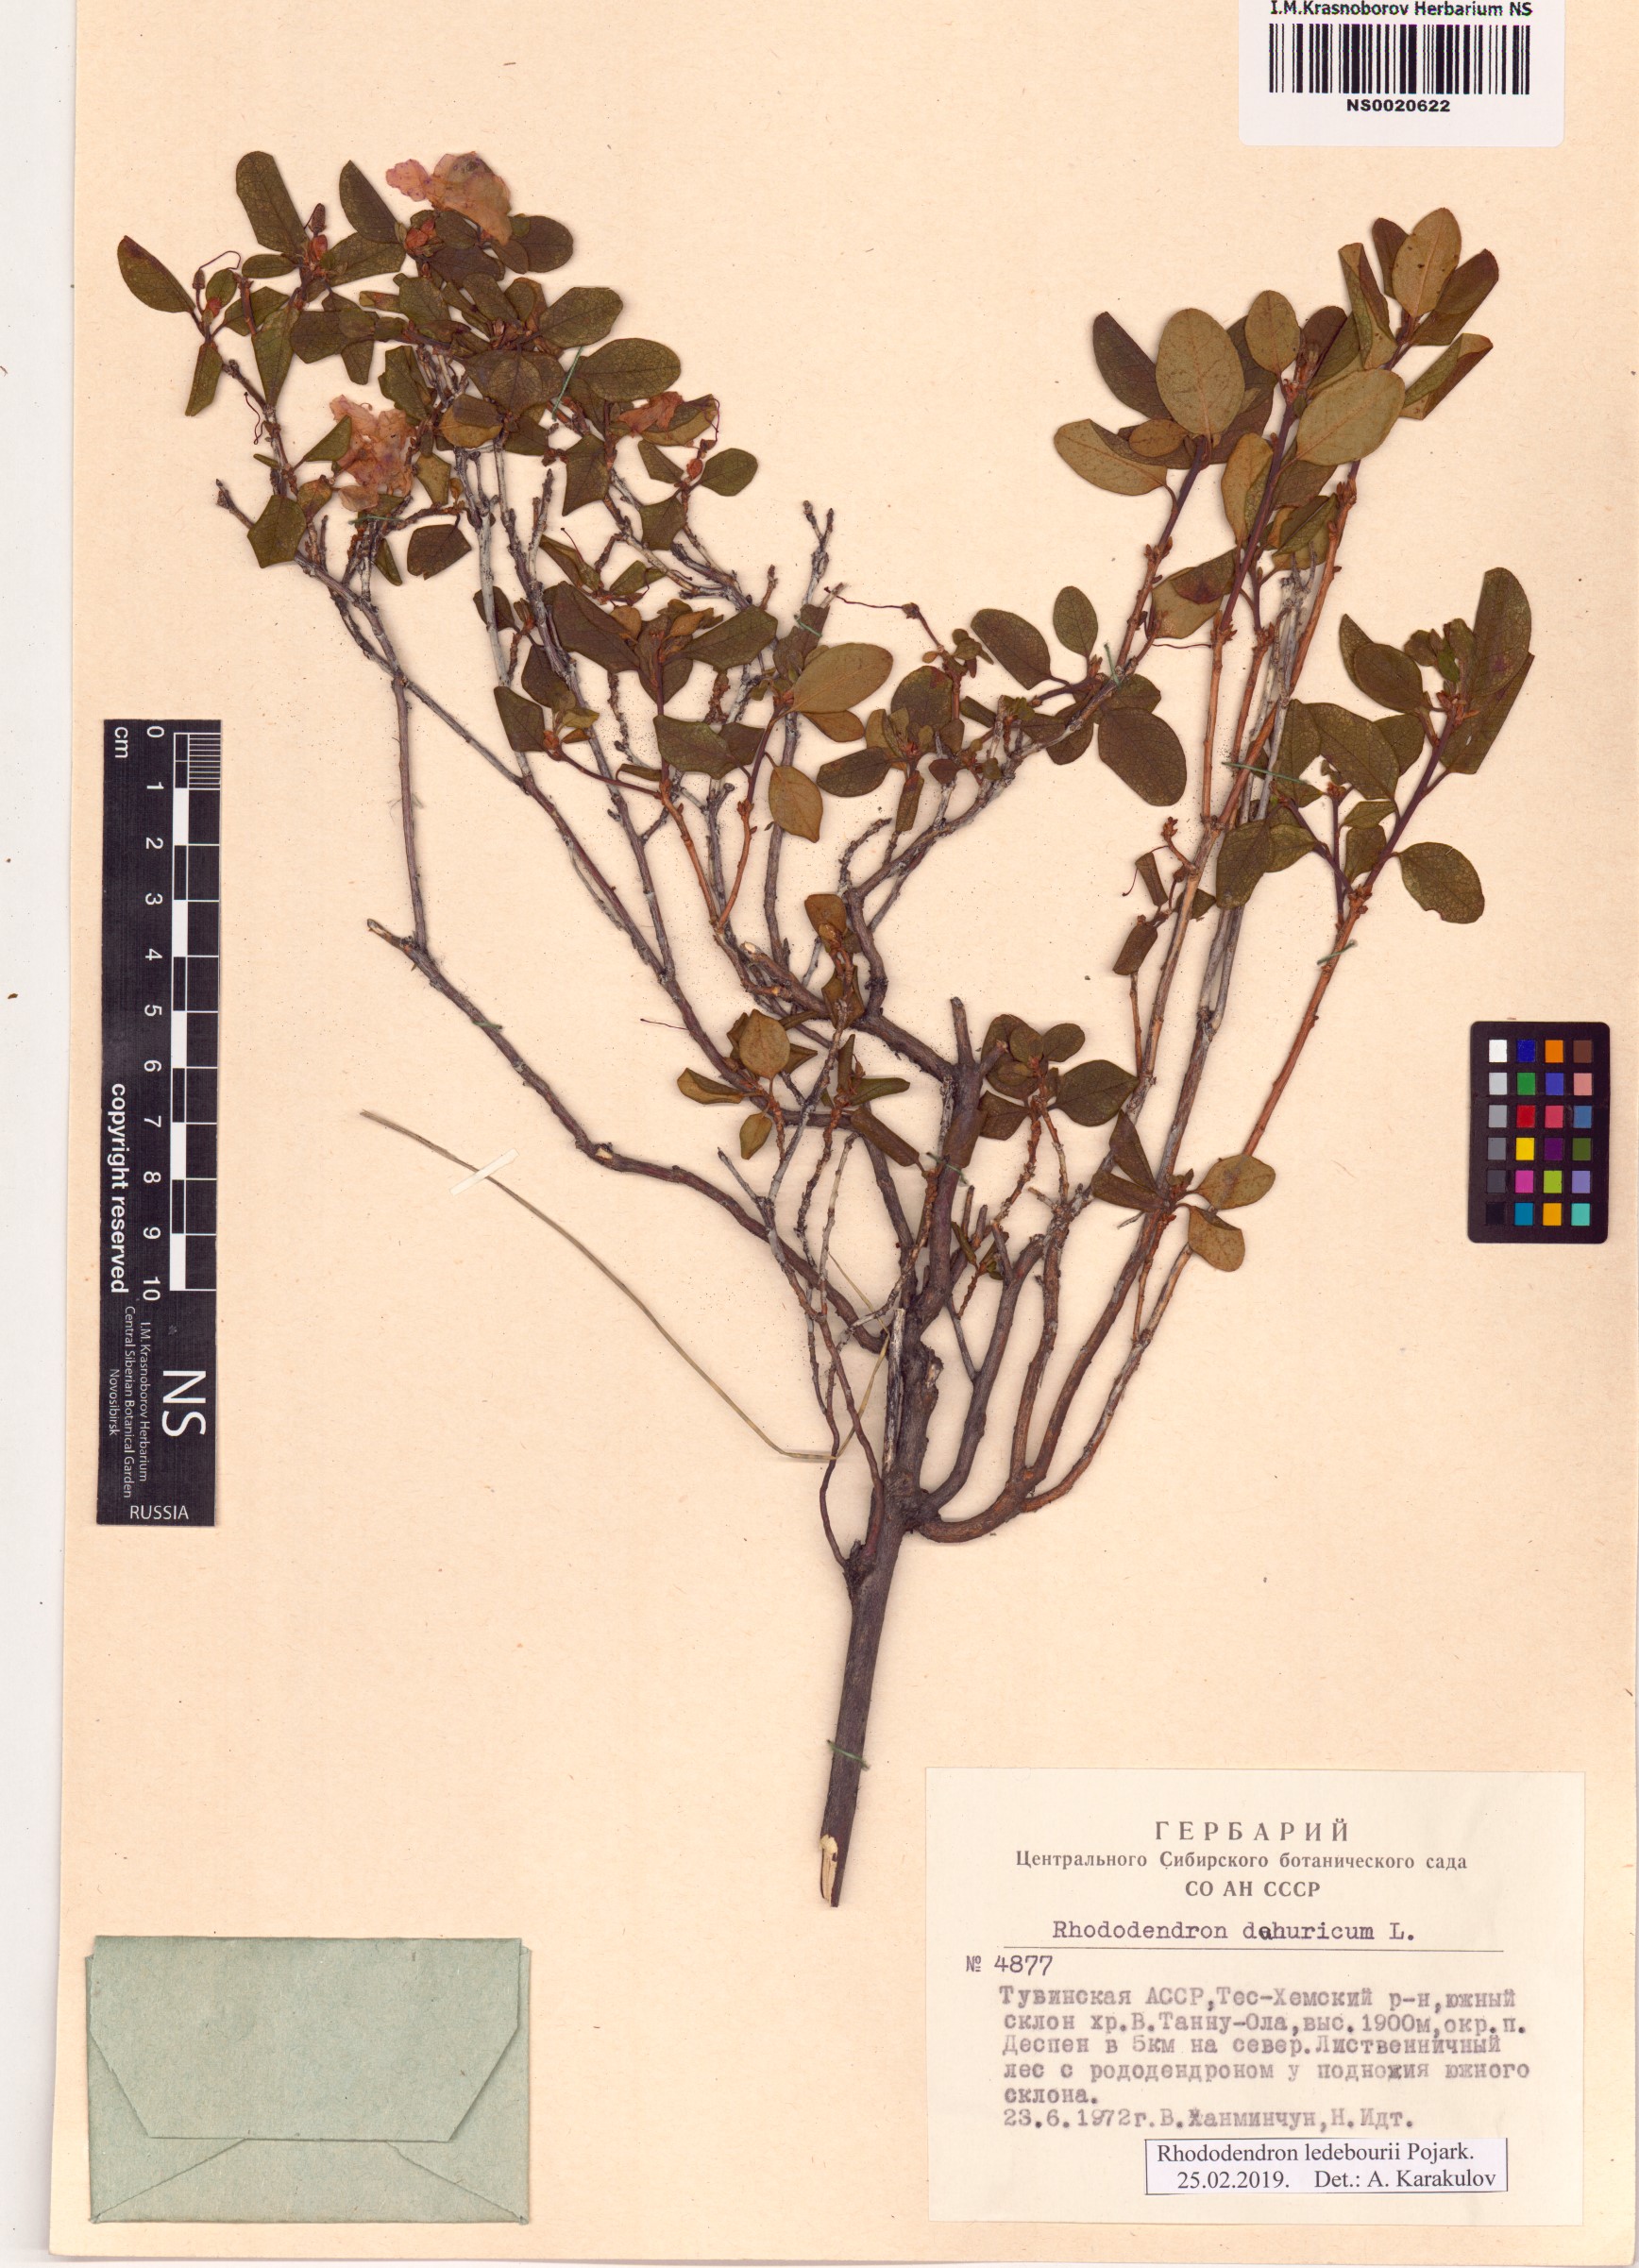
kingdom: Plantae
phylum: Tracheophyta
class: Magnoliopsida
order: Ericales
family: Ericaceae
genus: Rhododendron
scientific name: Rhododendron dauricum
